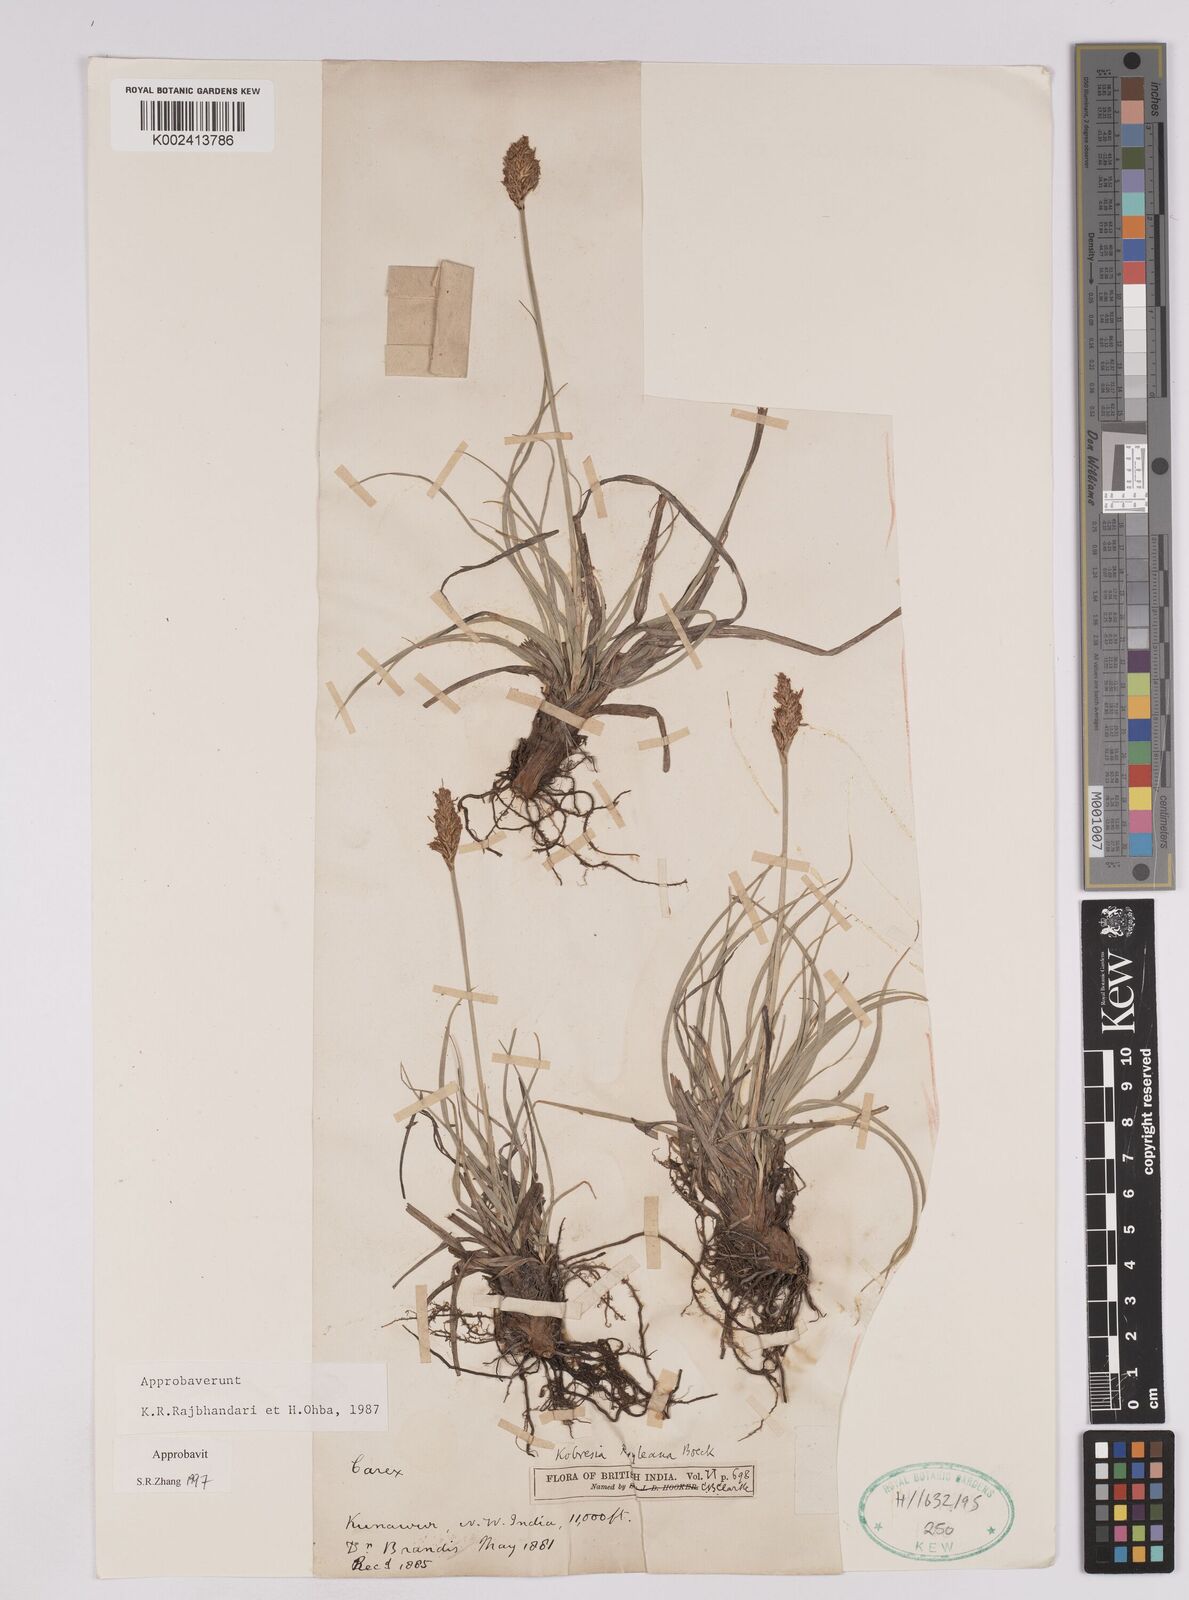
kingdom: Plantae
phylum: Tracheophyta
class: Liliopsida
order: Poales
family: Cyperaceae
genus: Carex
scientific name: Carex kokanica
